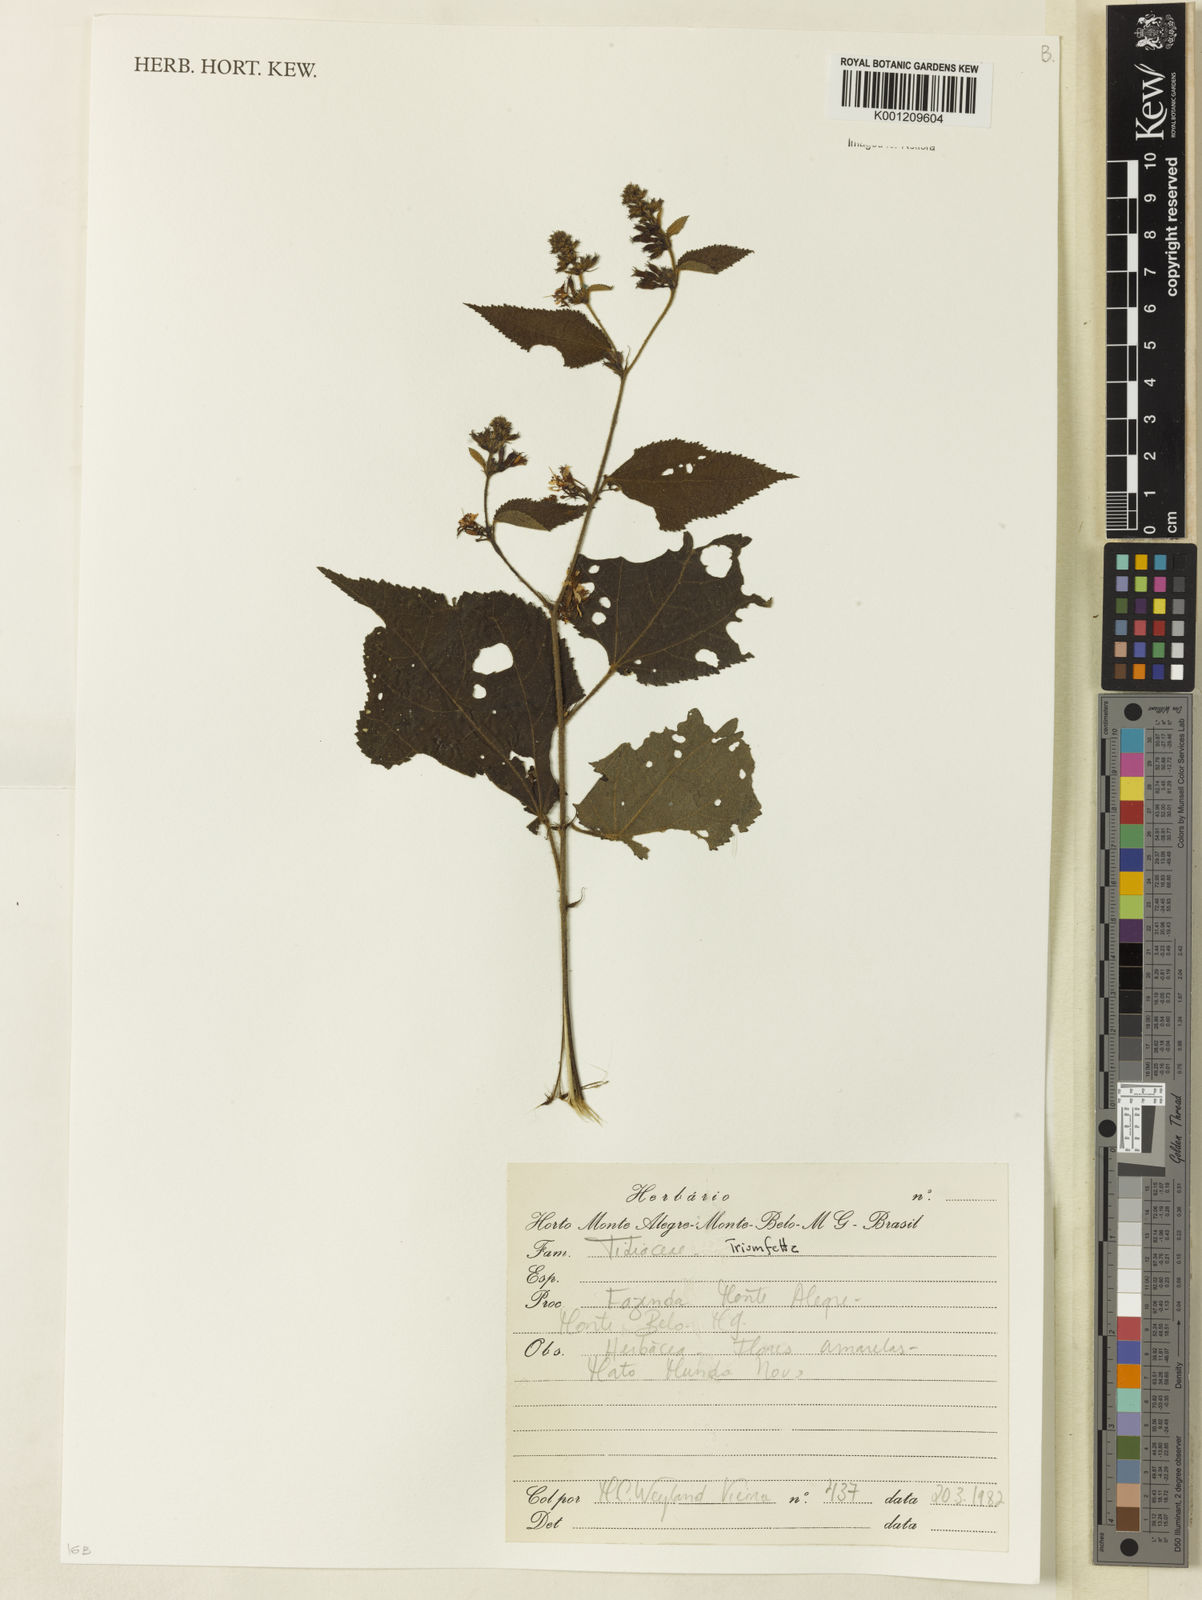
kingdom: Plantae
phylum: Tracheophyta
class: Magnoliopsida
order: Malvales
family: Malvaceae
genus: Triumfetta
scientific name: Triumfetta
